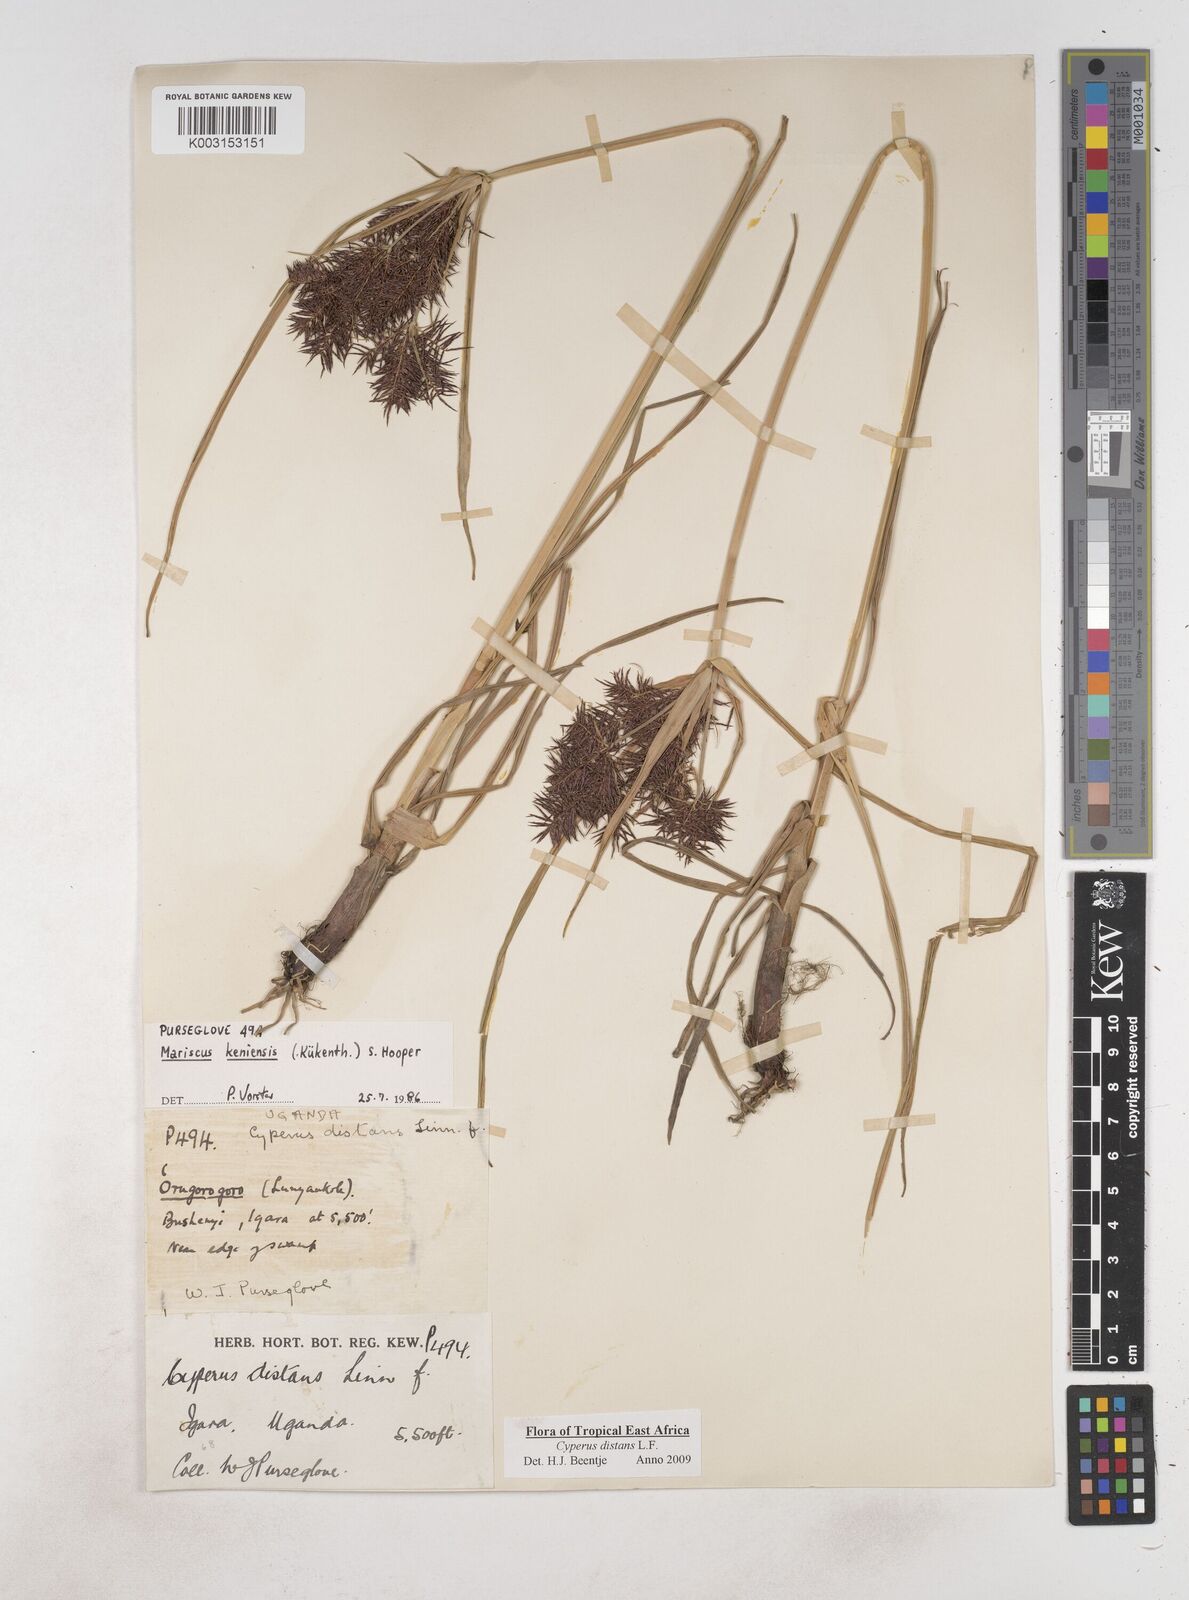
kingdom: Plantae
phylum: Tracheophyta
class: Liliopsida
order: Poales
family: Cyperaceae
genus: Cyperus
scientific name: Cyperus distans
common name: Slender cyperus
